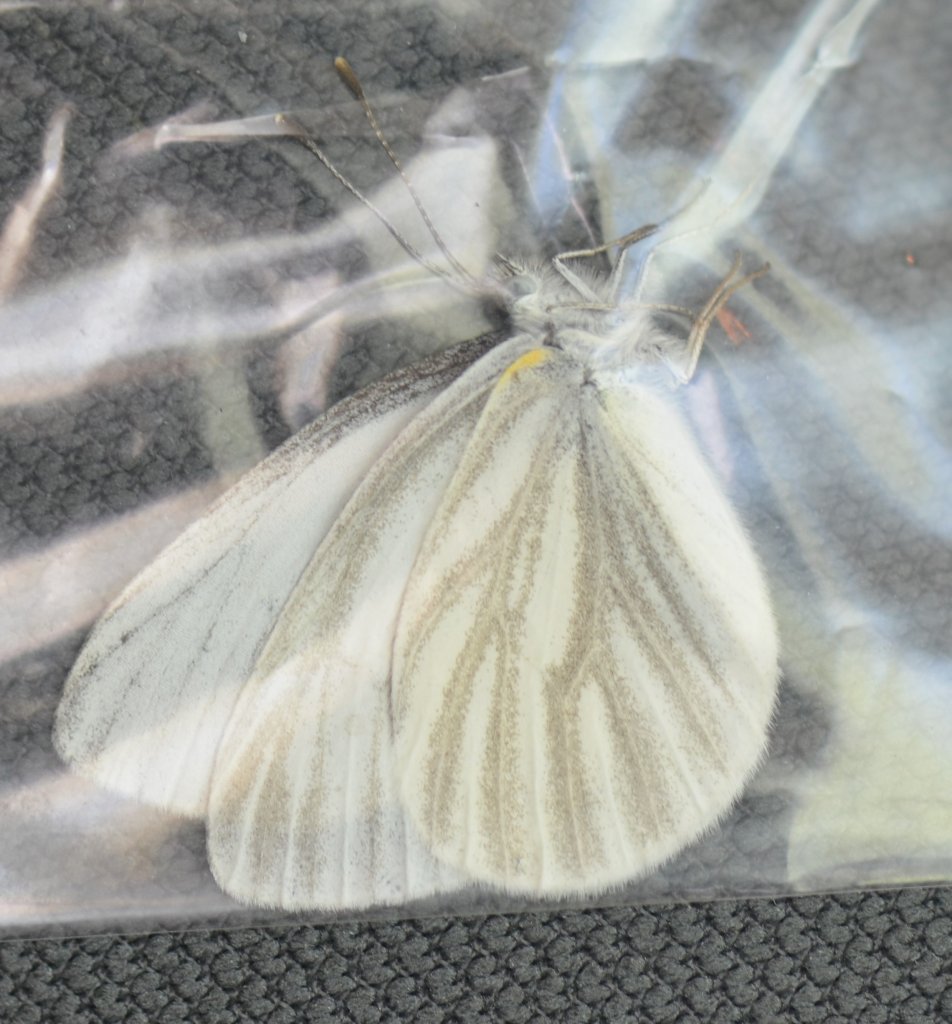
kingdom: Animalia
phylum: Arthropoda
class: Insecta
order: Lepidoptera
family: Pieridae
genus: Pieris
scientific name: Pieris virginiensis
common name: West Virginia White
